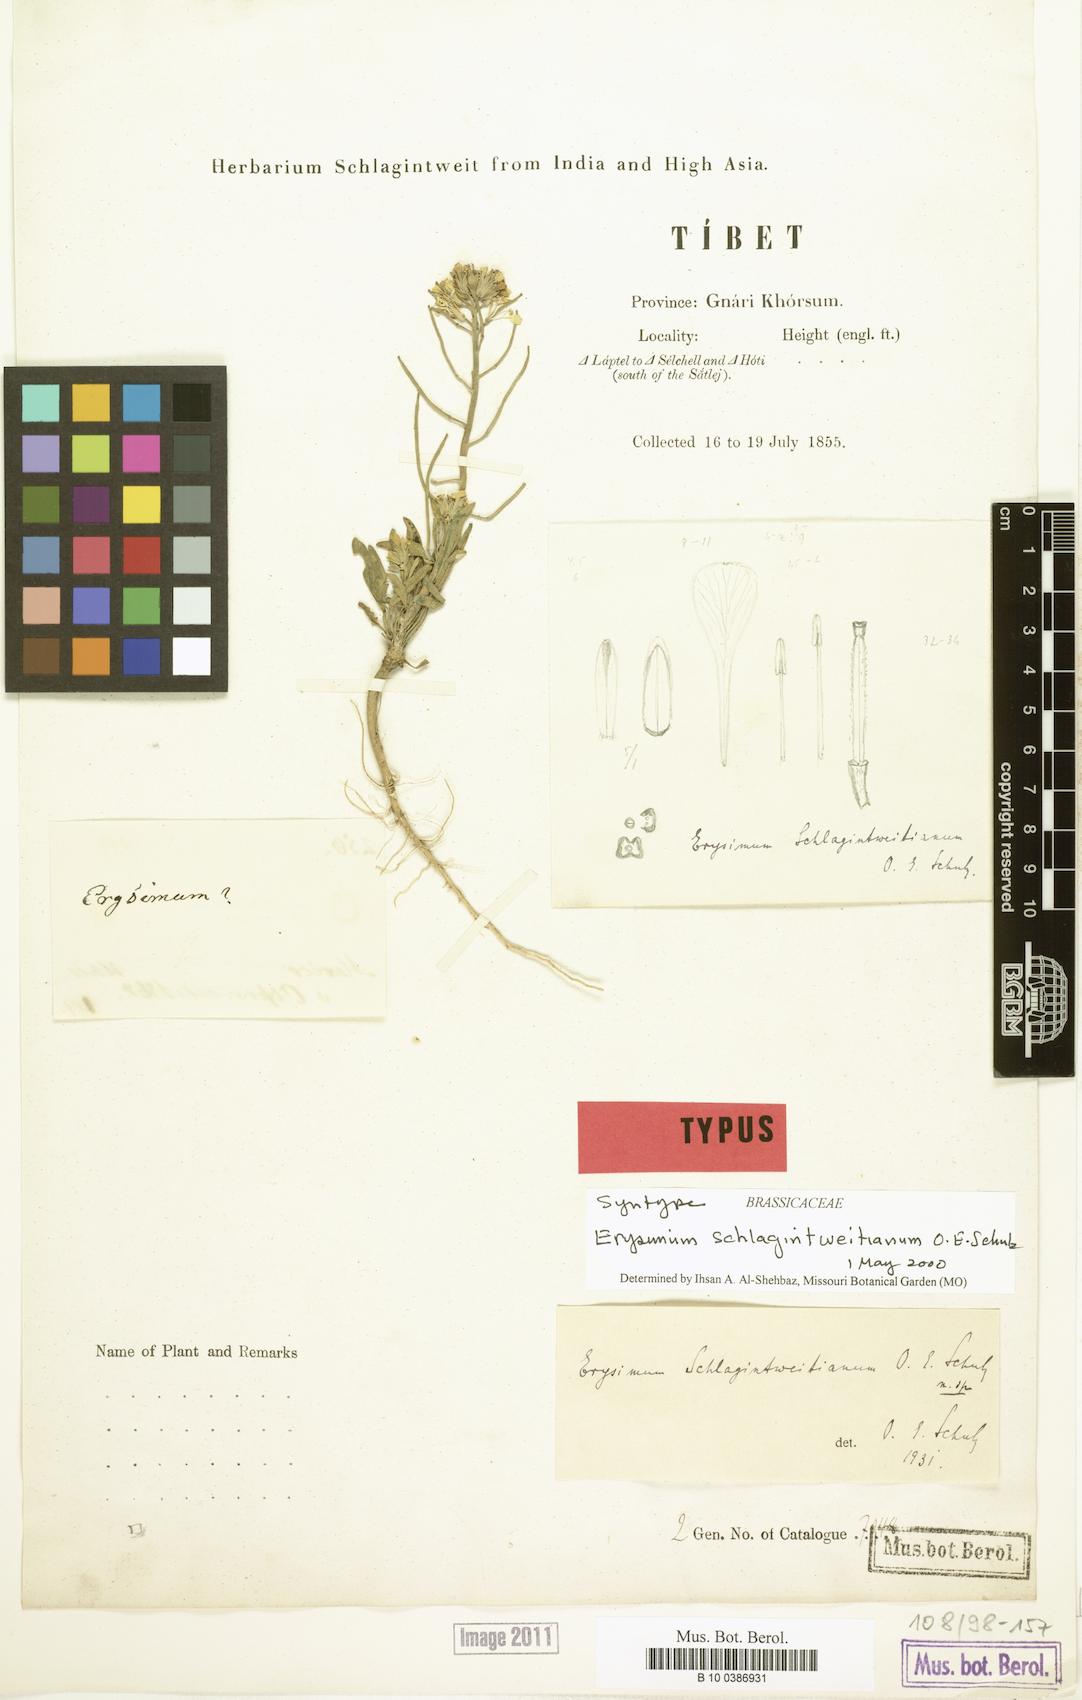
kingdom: Plantae
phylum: Tracheophyta
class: Magnoliopsida
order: Brassicales
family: Brassicaceae
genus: Erysimum
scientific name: Erysimum schlagintweitianum
